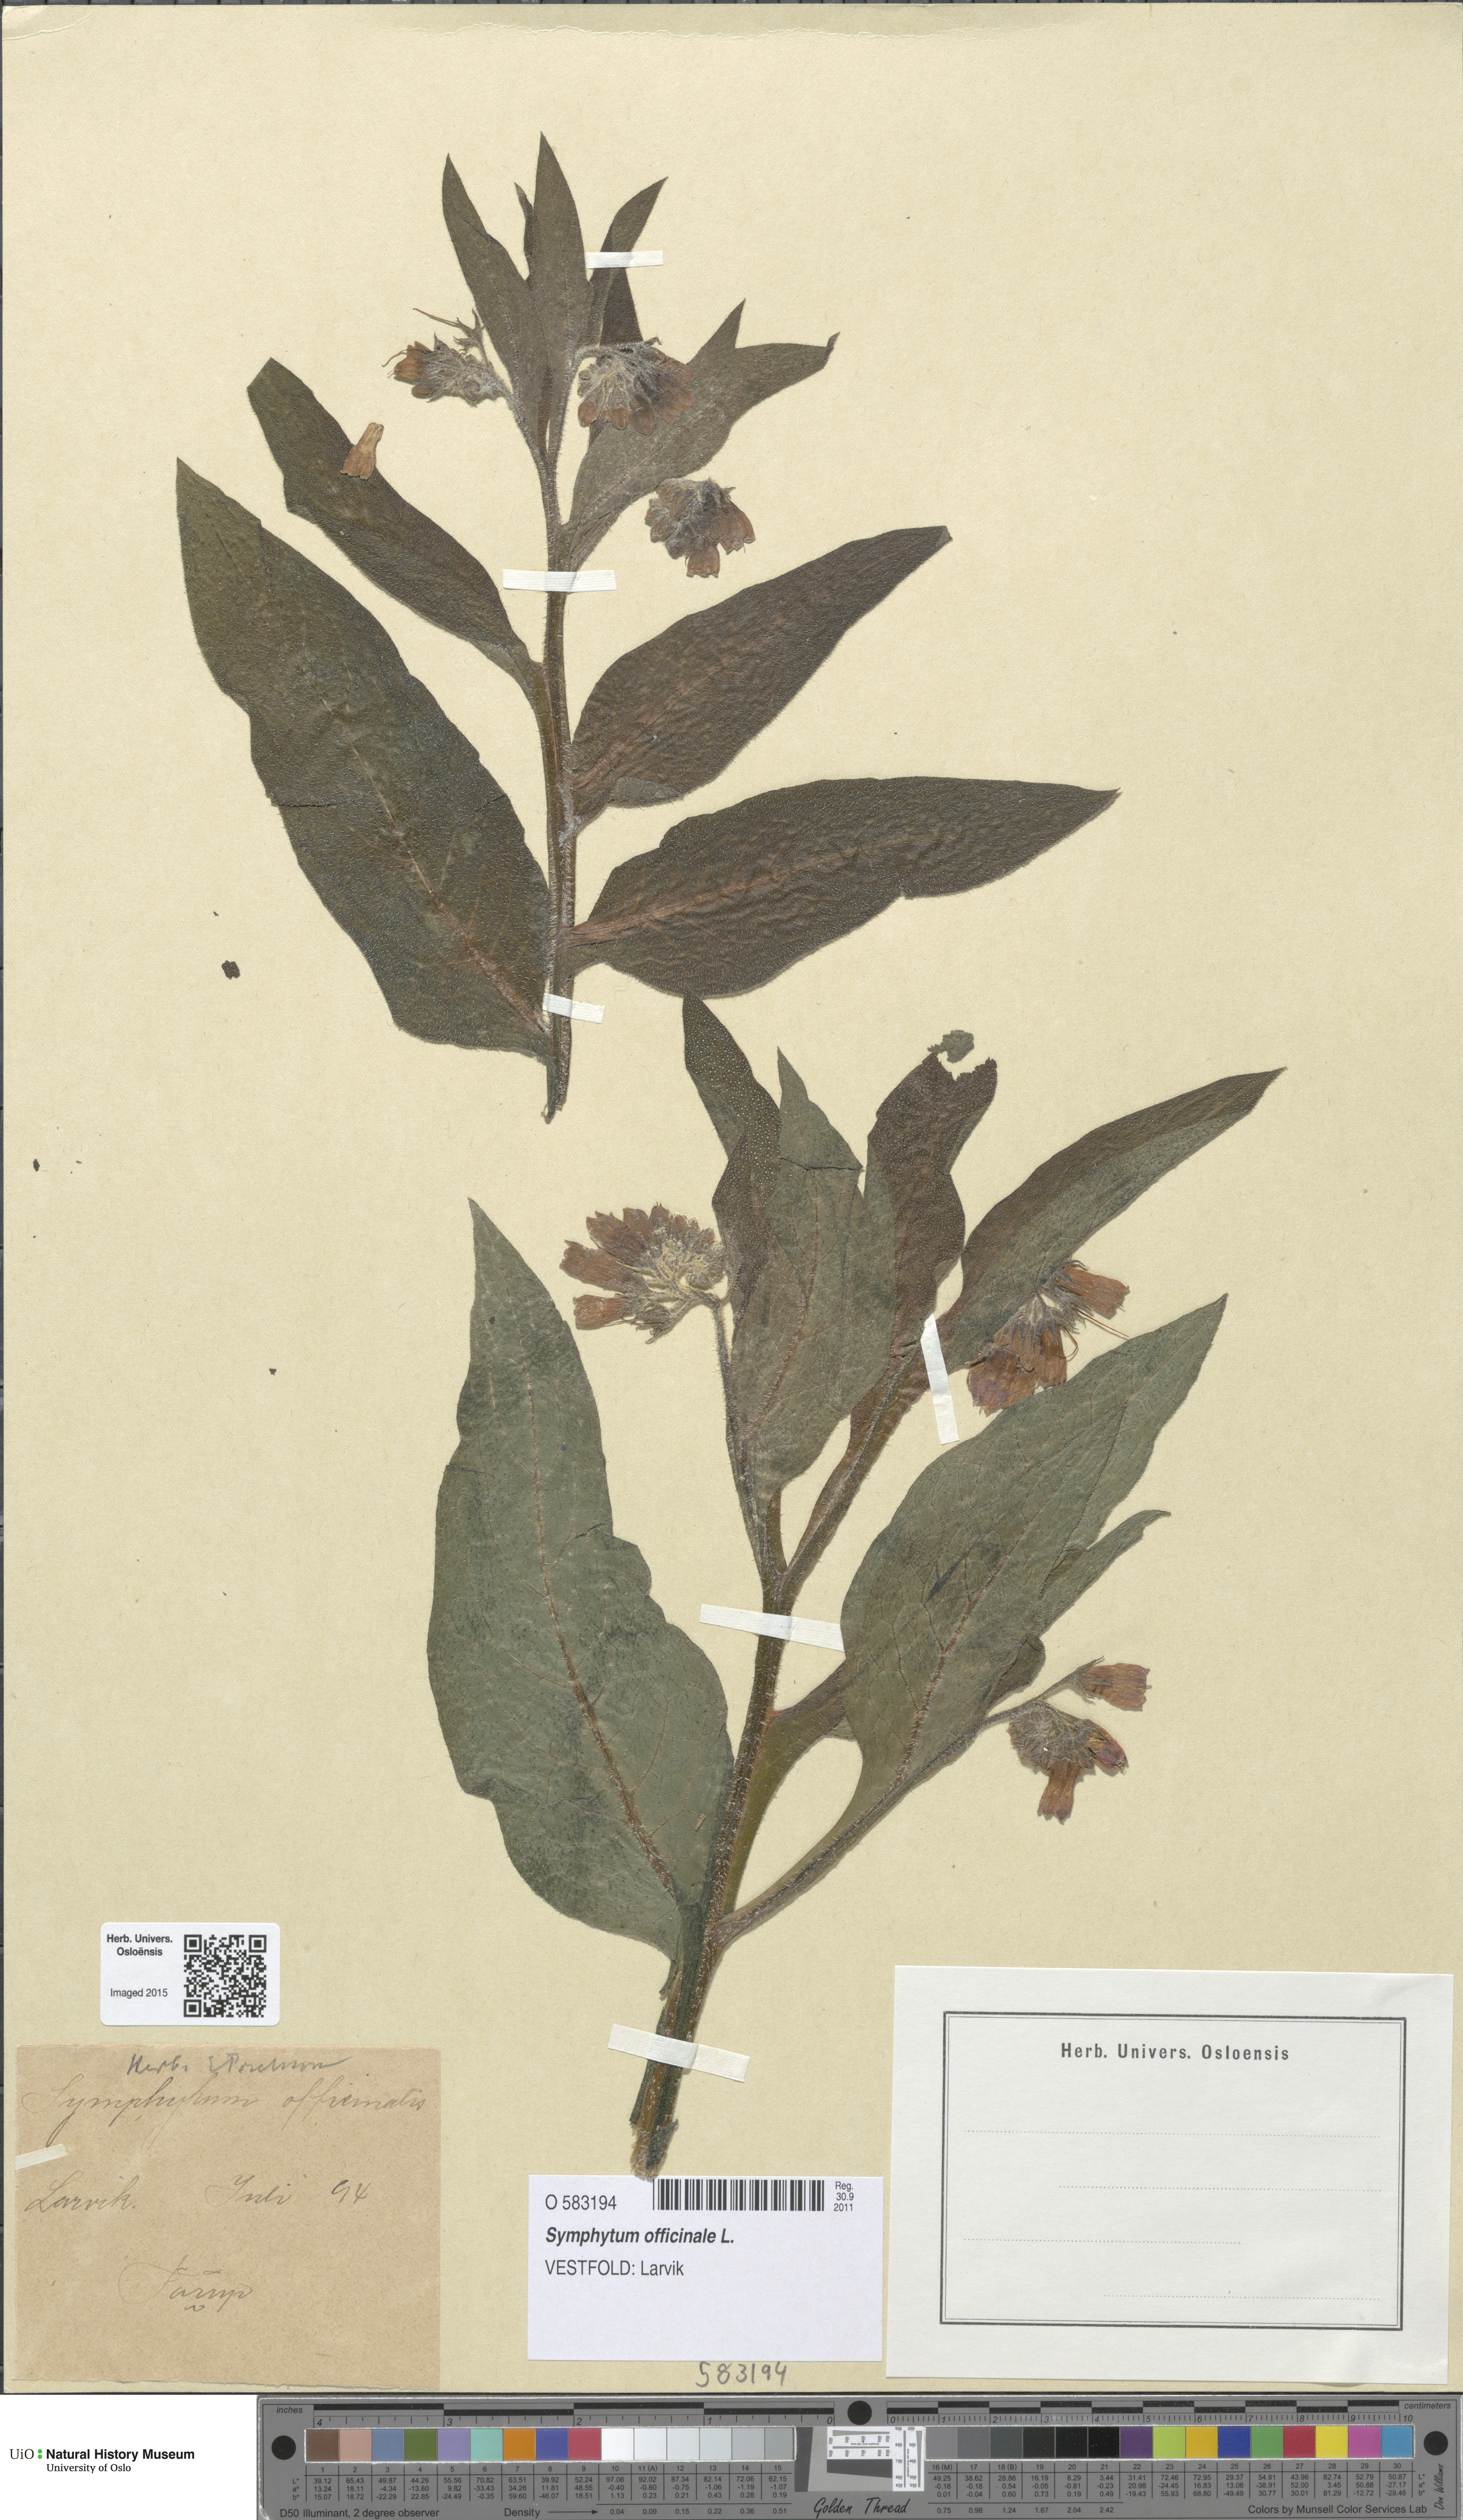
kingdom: Plantae
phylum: Tracheophyta
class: Magnoliopsida
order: Boraginales
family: Boraginaceae
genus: Symphytum
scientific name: Symphytum officinale
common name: Common comfrey
